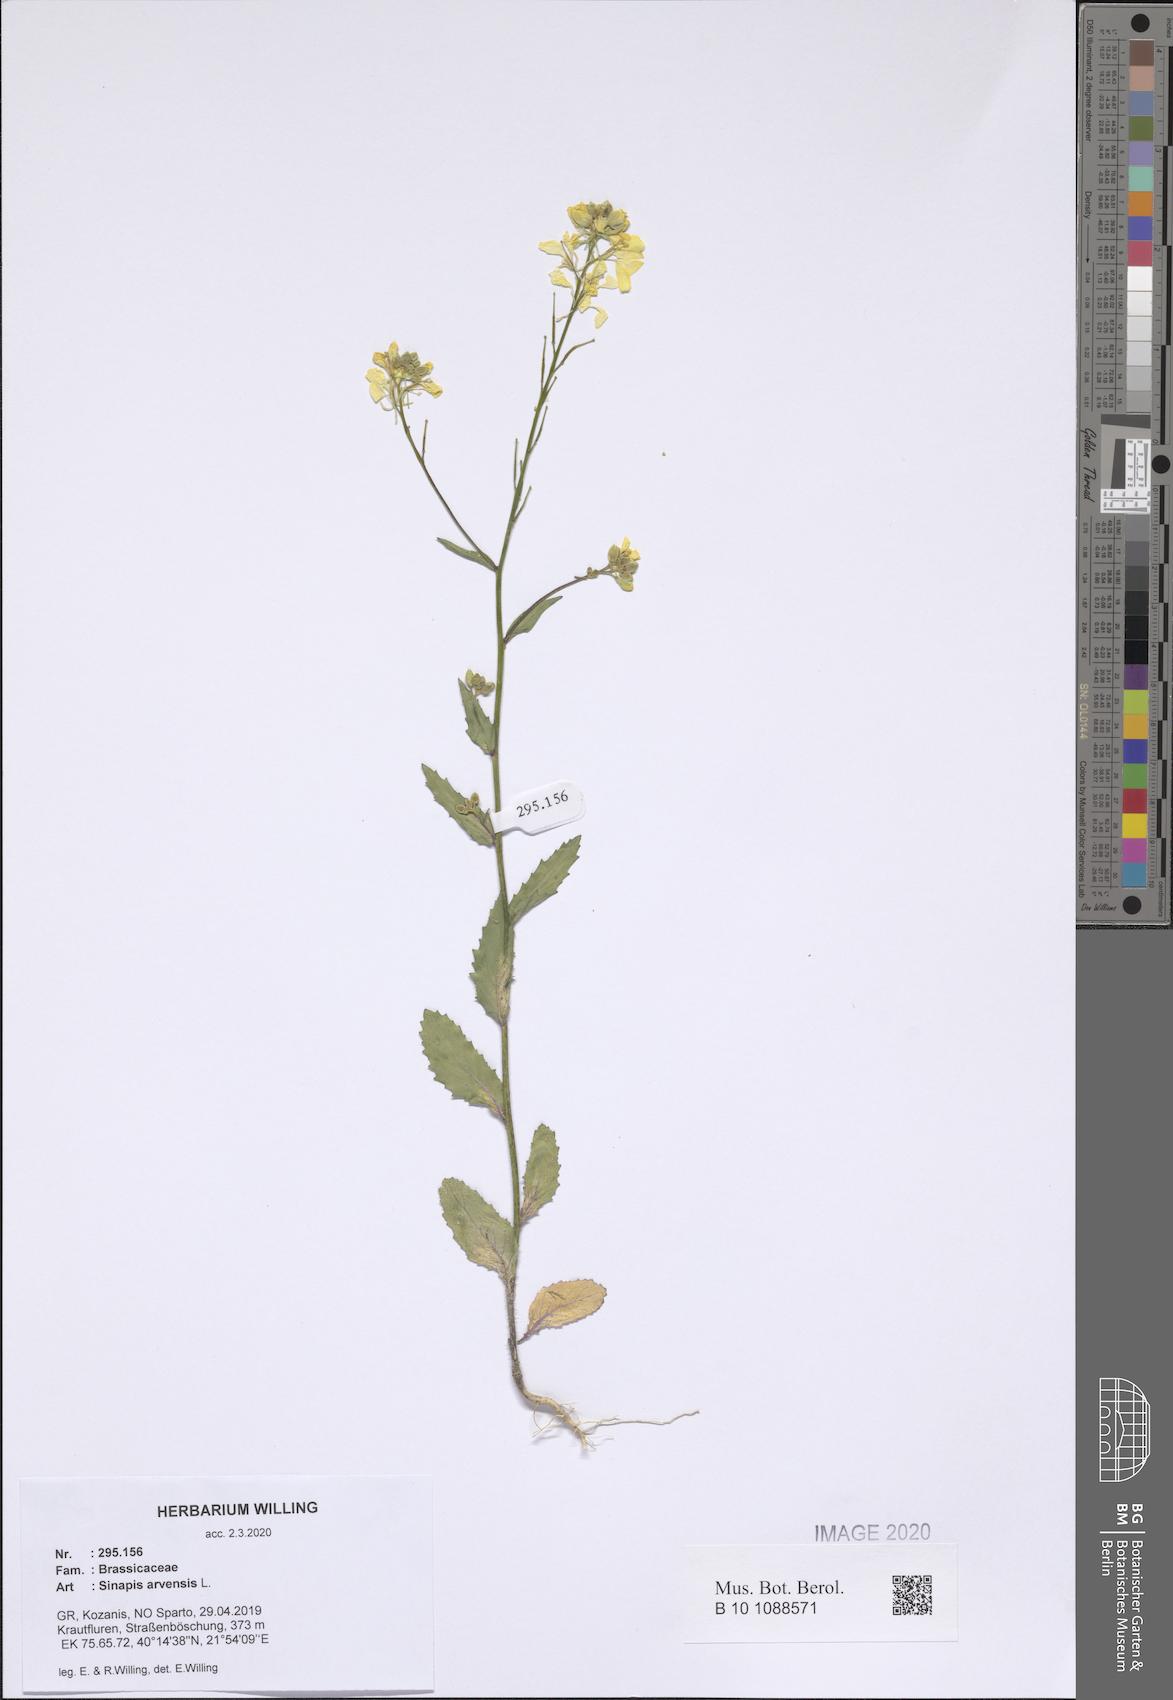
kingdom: Plantae
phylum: Tracheophyta
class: Magnoliopsida
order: Brassicales
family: Brassicaceae
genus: Sinapis
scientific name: Sinapis arvensis
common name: Charlock
